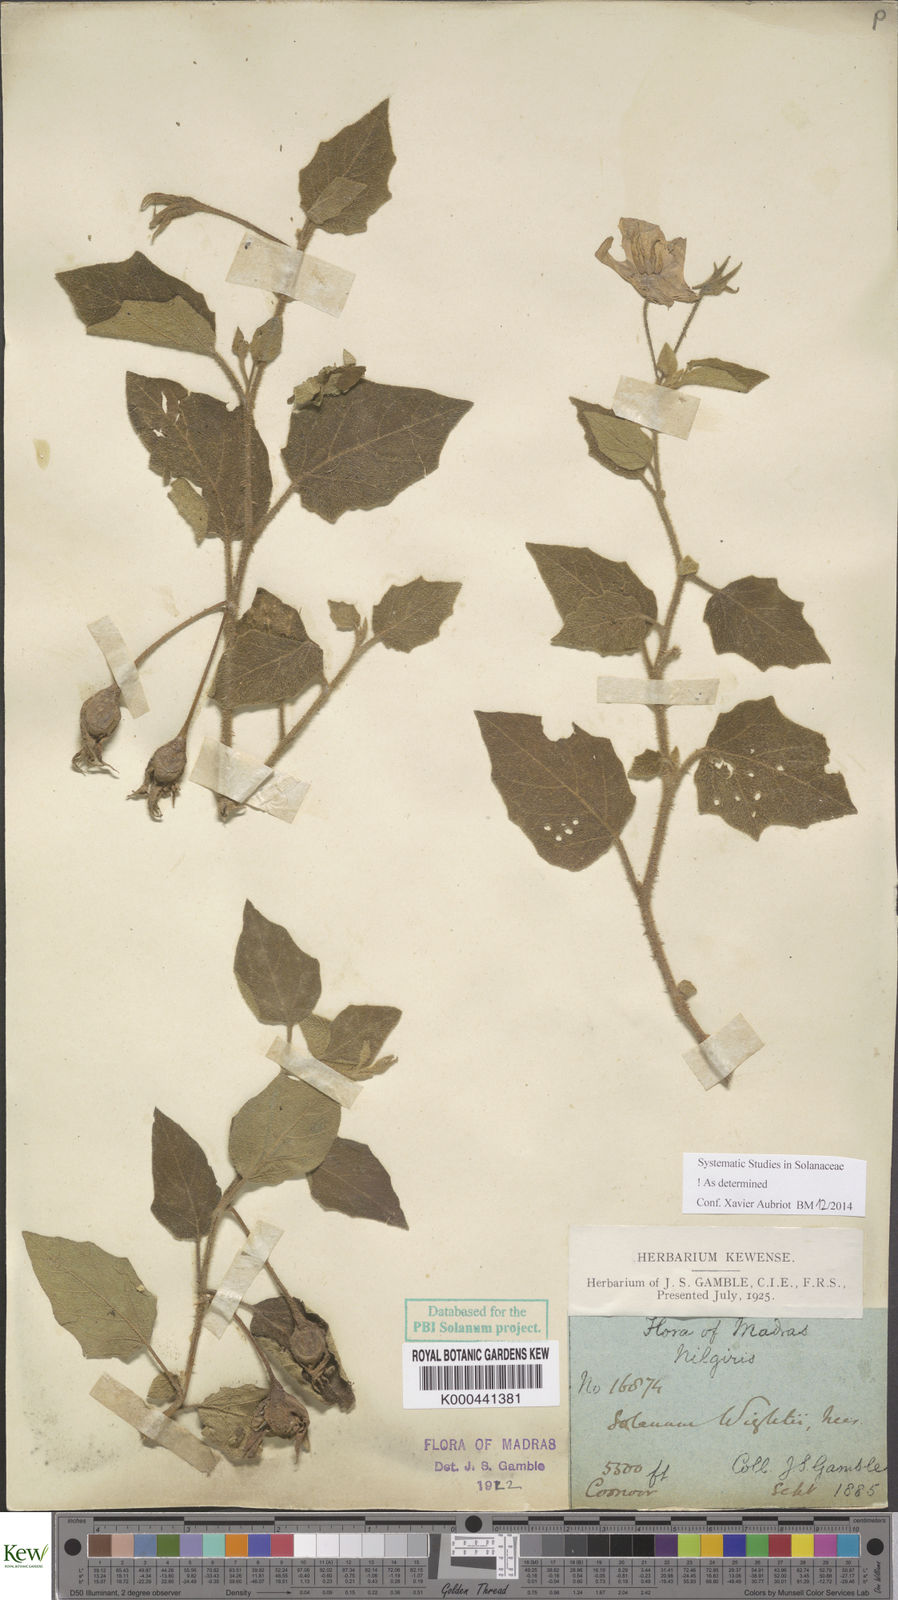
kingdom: Plantae
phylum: Tracheophyta
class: Magnoliopsida
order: Solanales
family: Solanaceae
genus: Solanum
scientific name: Solanum wightii
